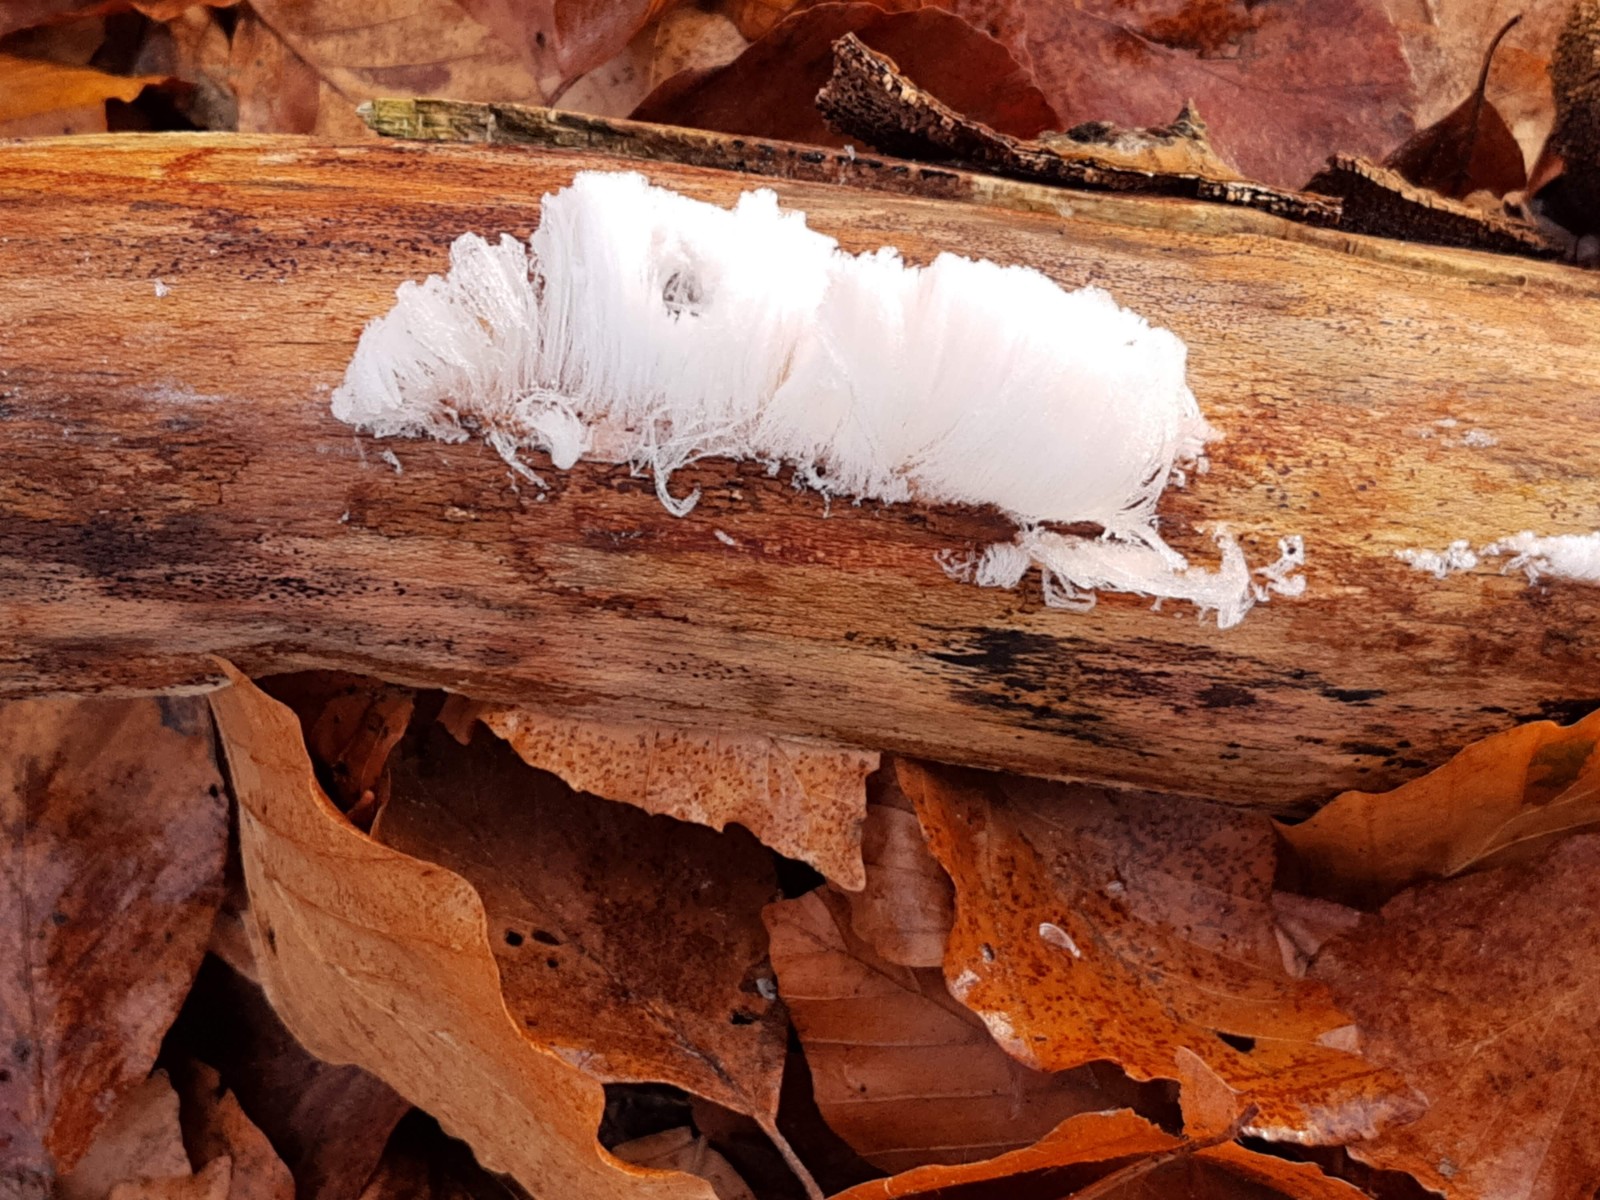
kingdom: Fungi
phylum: Basidiomycota
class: Tremellomycetes
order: Tremellales
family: Exidiaceae
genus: Exidiopsis
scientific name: Exidiopsis effusa
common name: smuk bævrehinde
